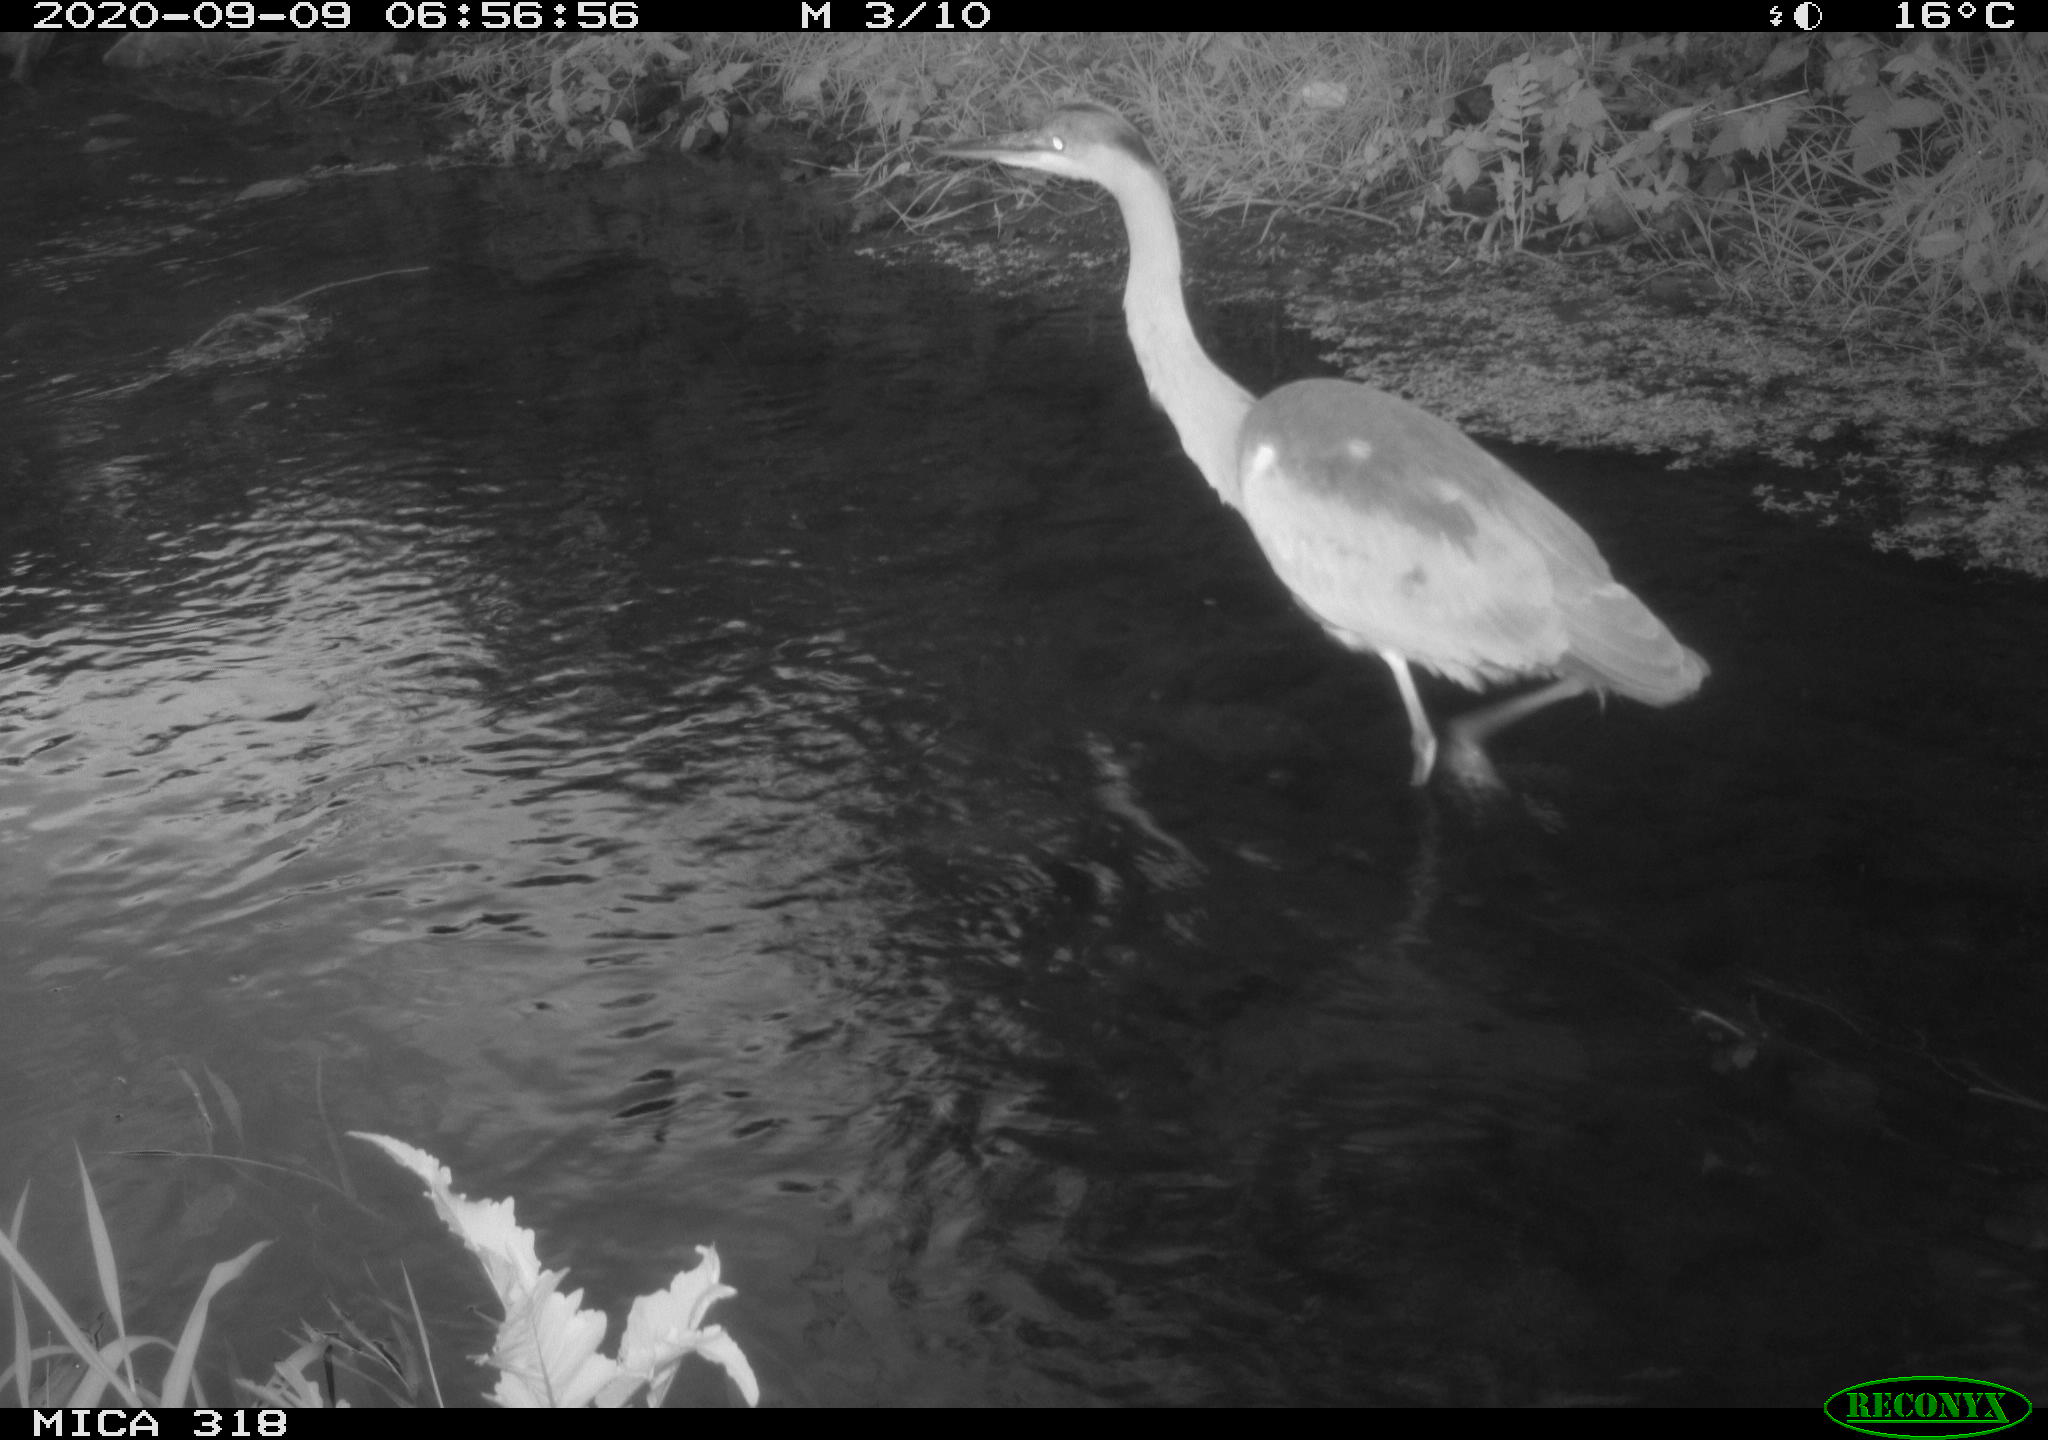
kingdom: Animalia
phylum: Chordata
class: Aves
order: Pelecaniformes
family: Ardeidae
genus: Ardea
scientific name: Ardea
